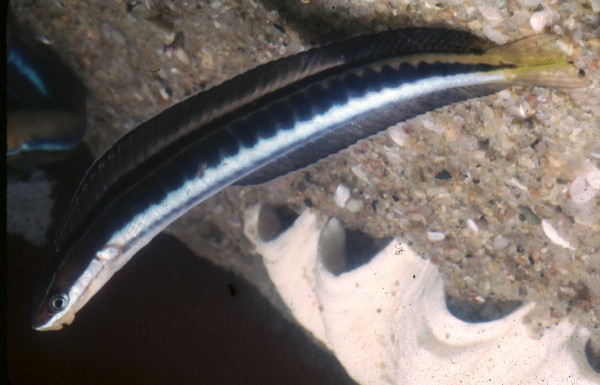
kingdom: Animalia
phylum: Chordata
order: Perciformes
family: Blenniidae
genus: Plagiotremus
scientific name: Plagiotremus rhinorhynchos
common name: Bluestriped fangblenny
